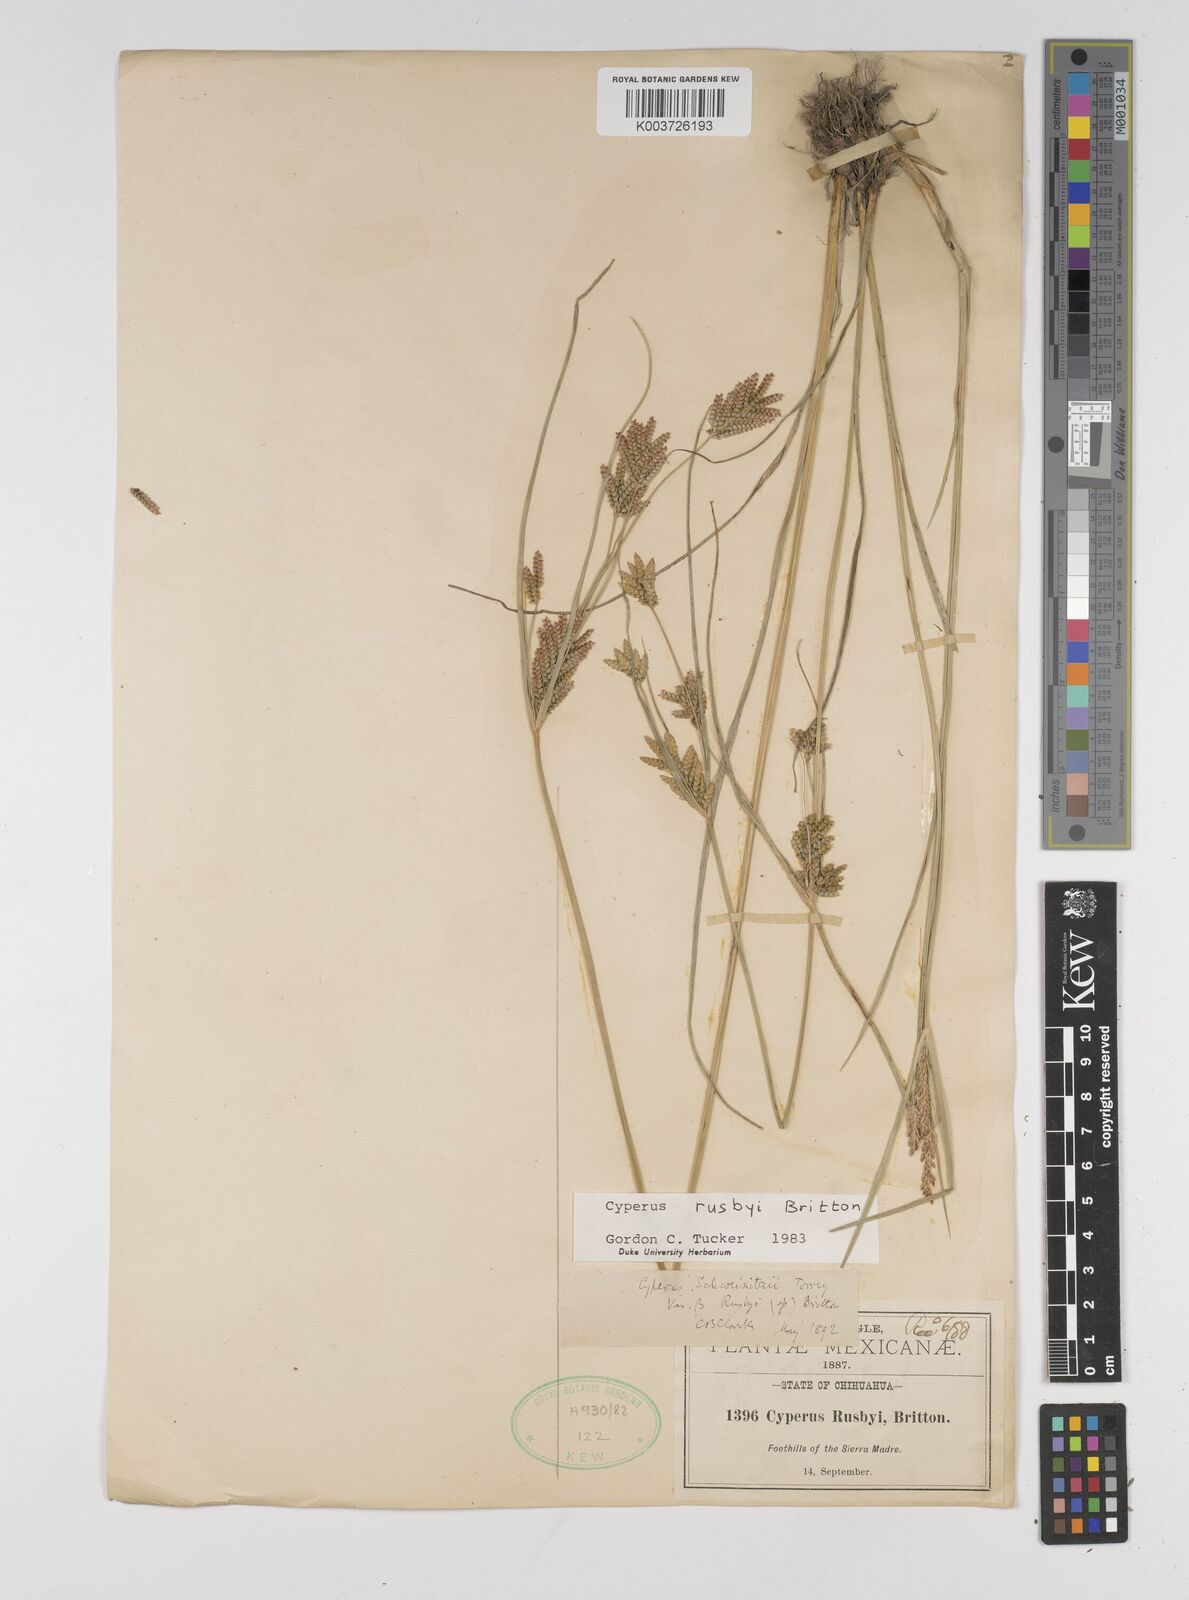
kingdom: Plantae
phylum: Tracheophyta
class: Liliopsida
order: Poales
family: Cyperaceae
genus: Cyperus
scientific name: Cyperus sphaerolepis
